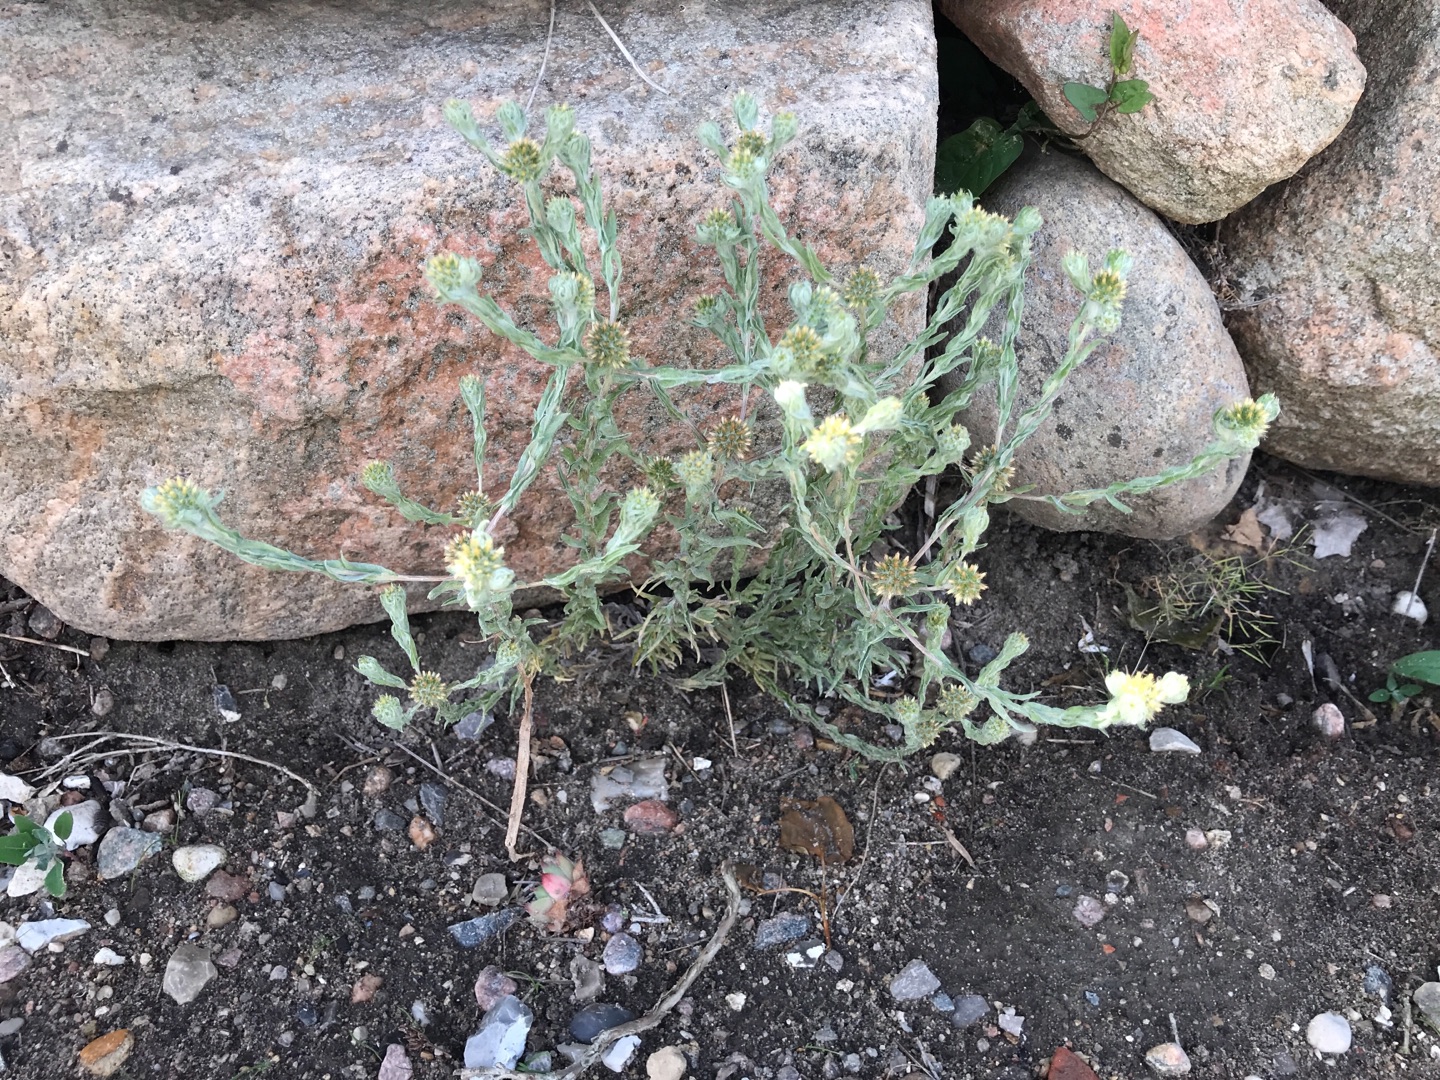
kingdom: Plantae
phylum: Tracheophyta
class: Magnoliopsida
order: Asterales
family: Asteraceae
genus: Filago
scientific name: Filago germanica
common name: Kugle-museurt
